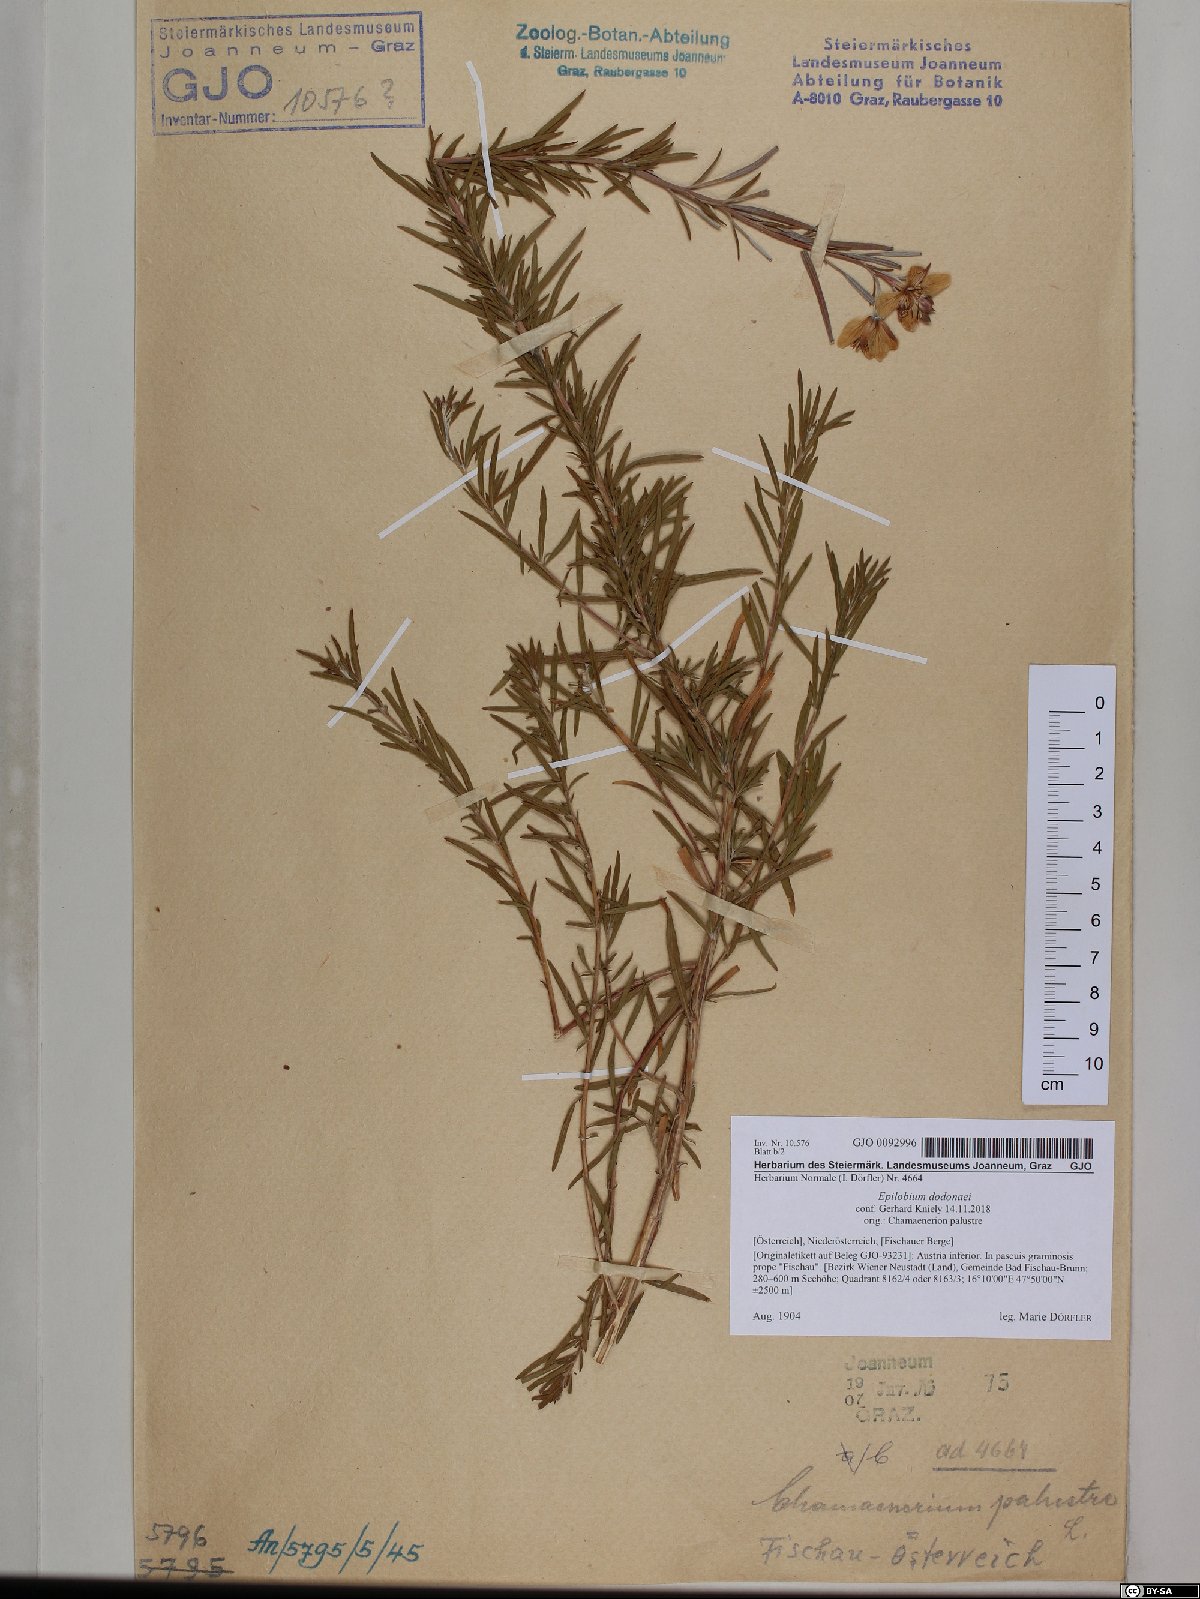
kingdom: Plantae
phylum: Tracheophyta
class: Magnoliopsida
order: Myrtales
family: Onagraceae
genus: Chamaenerion
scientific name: Chamaenerion dodonaei
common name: Rosemary-leaved willowherb
